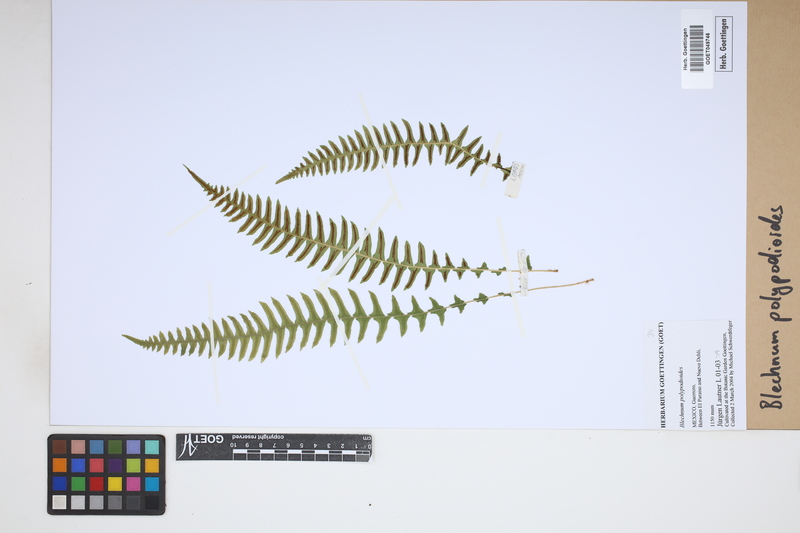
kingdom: Plantae
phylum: Tracheophyta
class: Polypodiopsida
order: Polypodiales
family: Blechnaceae
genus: Blechnum
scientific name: Blechnum polypodioides
